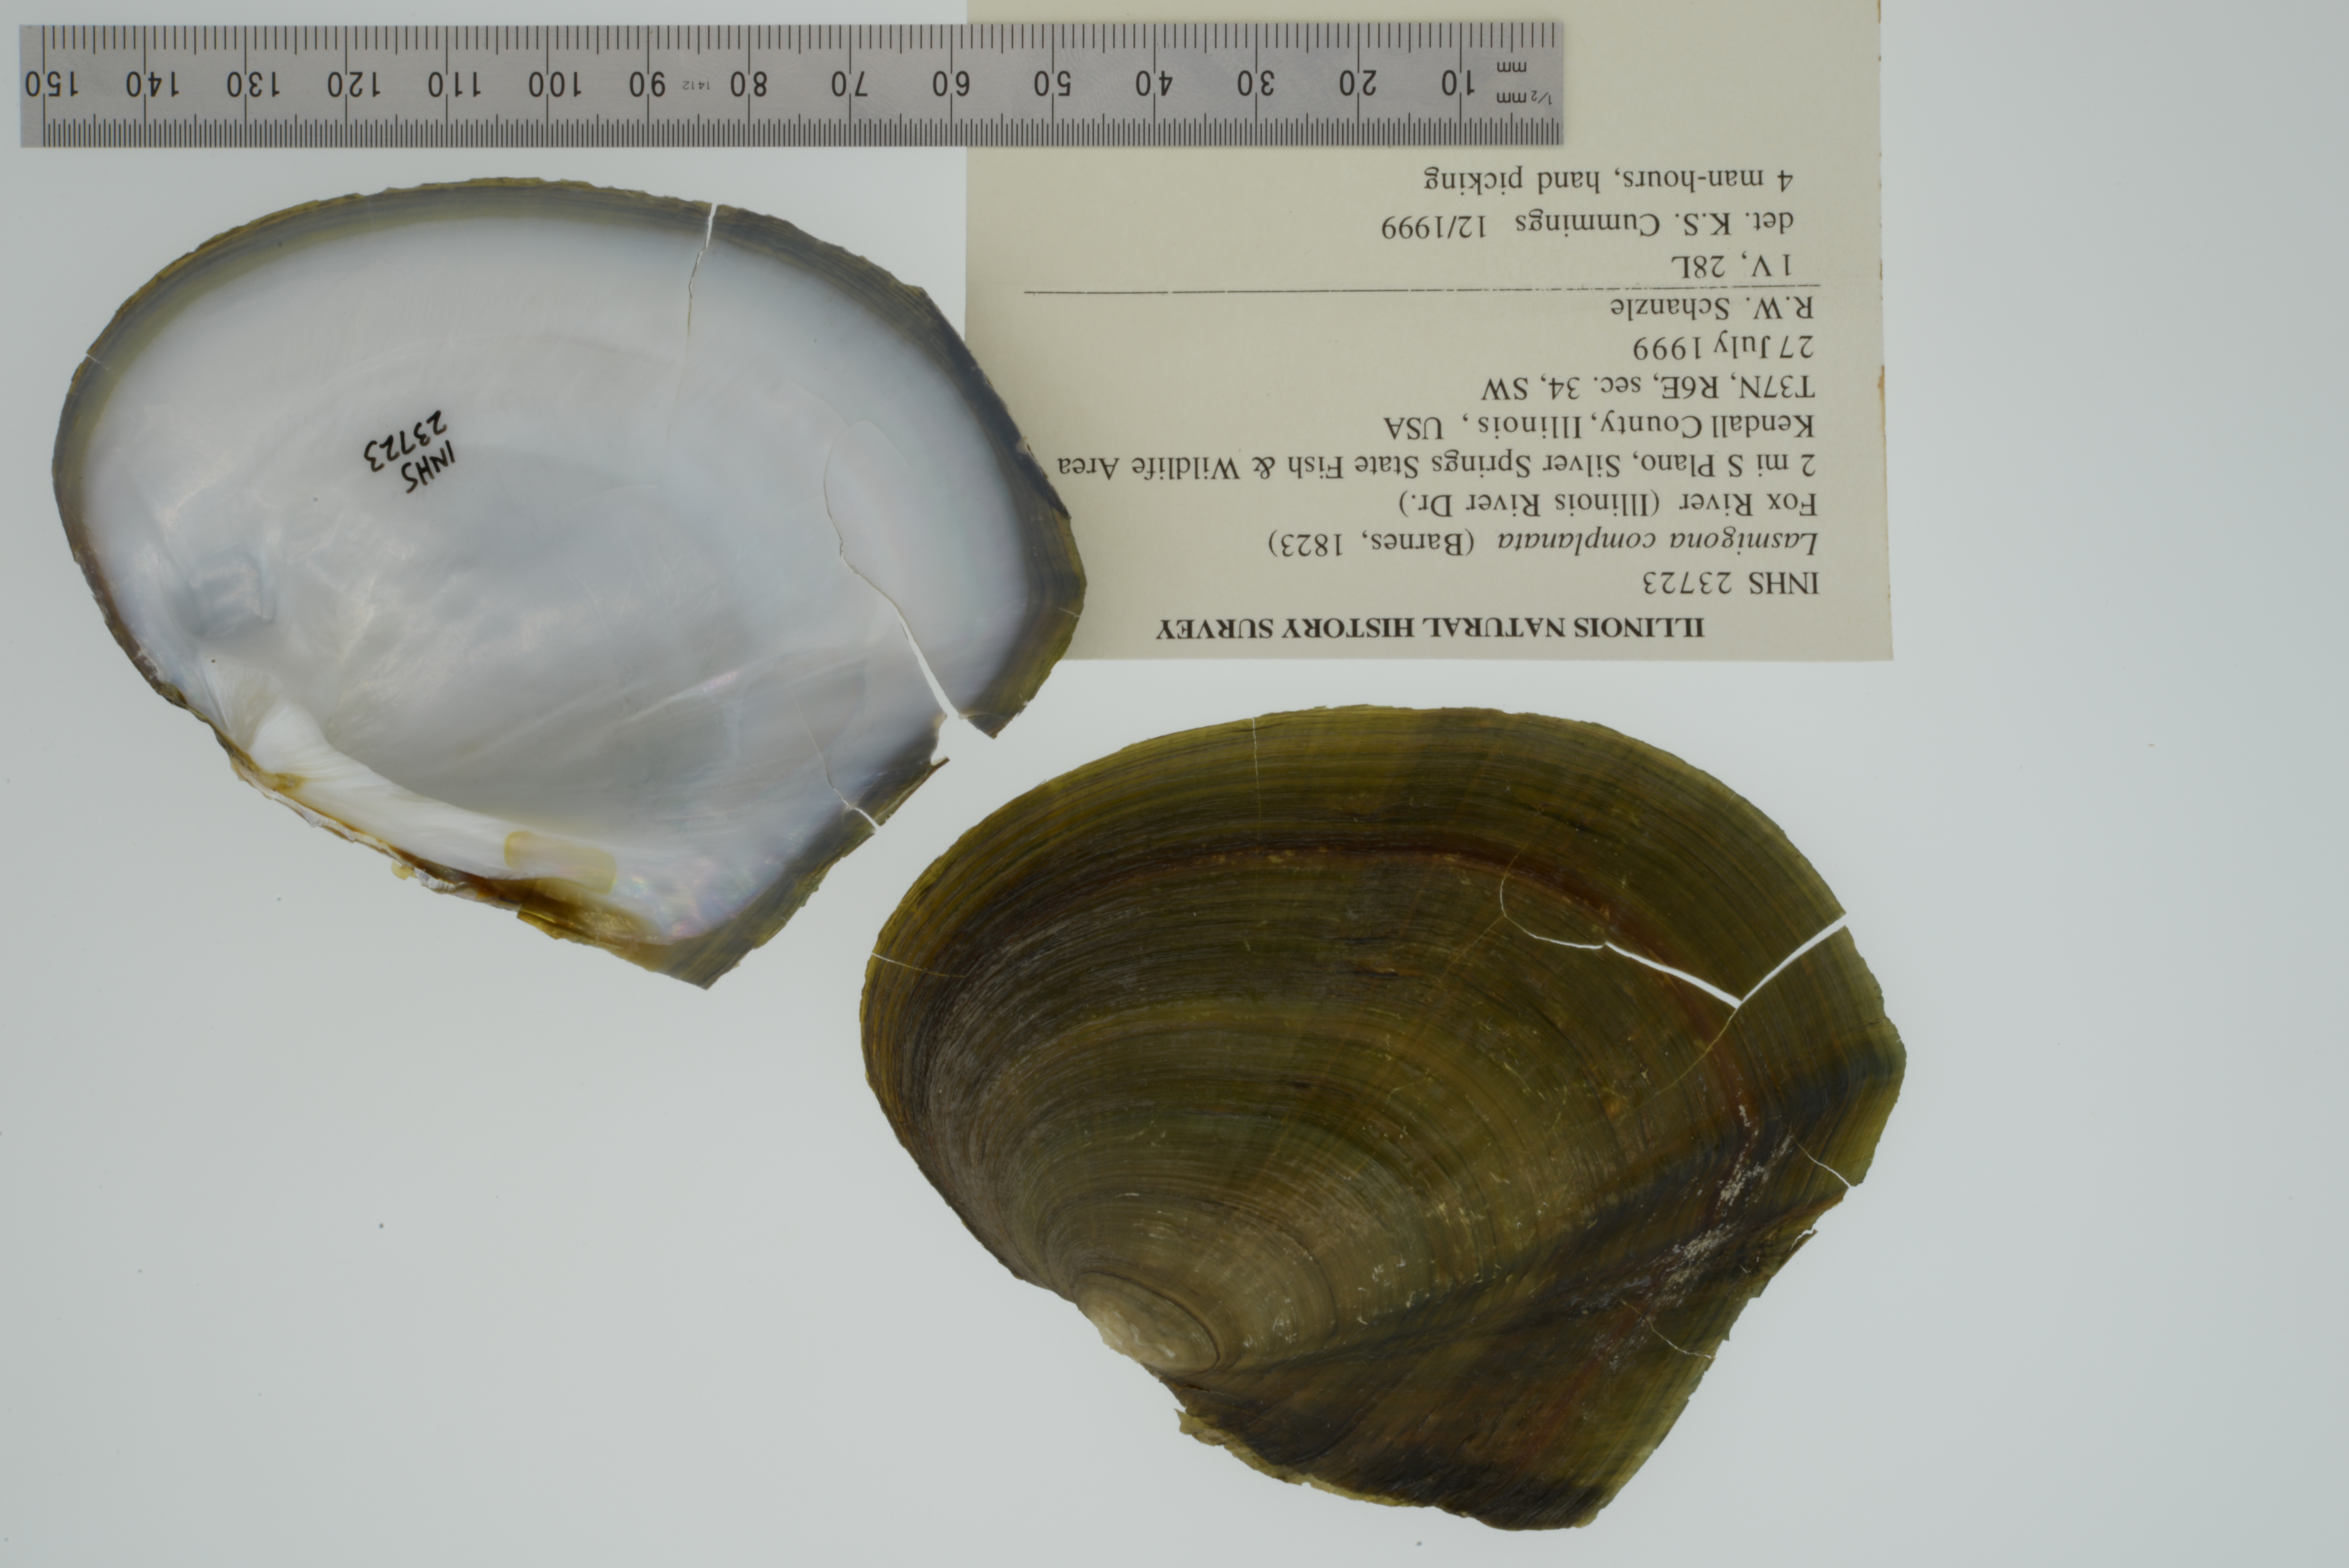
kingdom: Animalia
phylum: Mollusca
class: Bivalvia
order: Unionida
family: Unionidae
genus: Lasmigona
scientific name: Lasmigona complanata
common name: White heelsplitter
